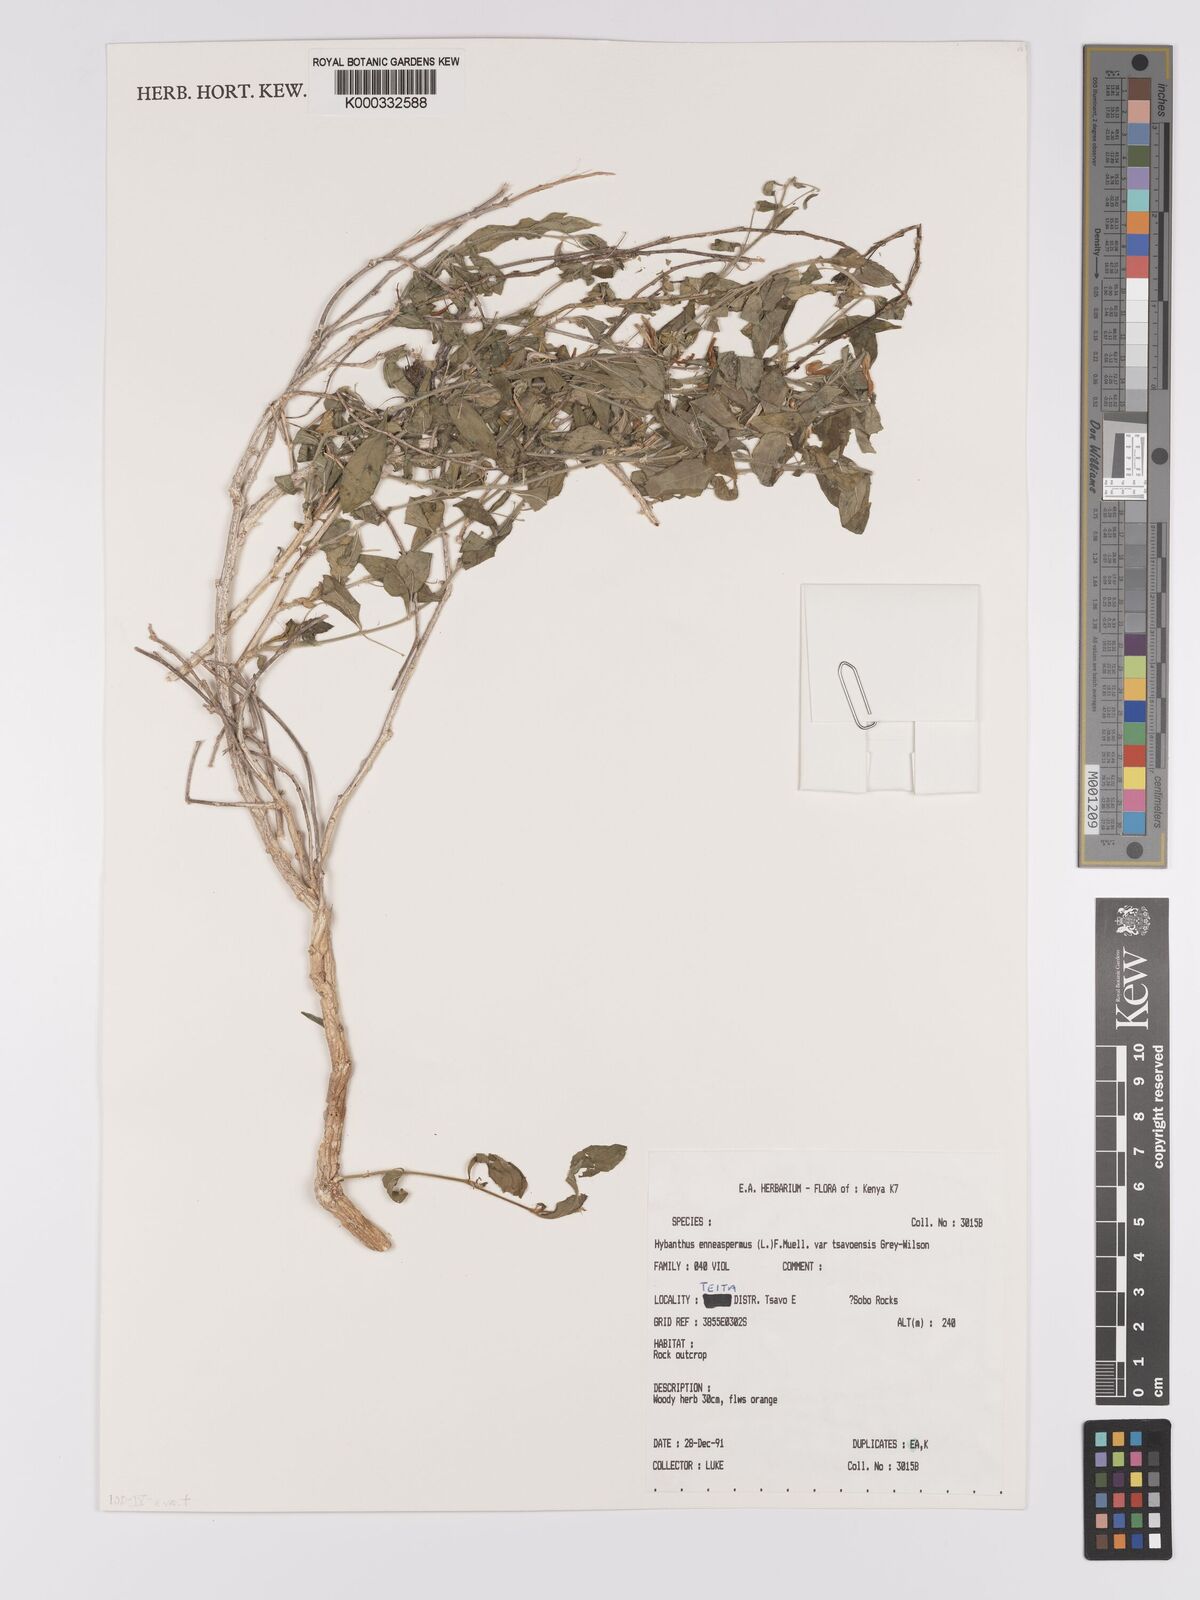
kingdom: Plantae
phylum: Tracheophyta
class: Magnoliopsida
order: Malpighiales
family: Violaceae
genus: Pigea
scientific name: Pigea tsavoensis
